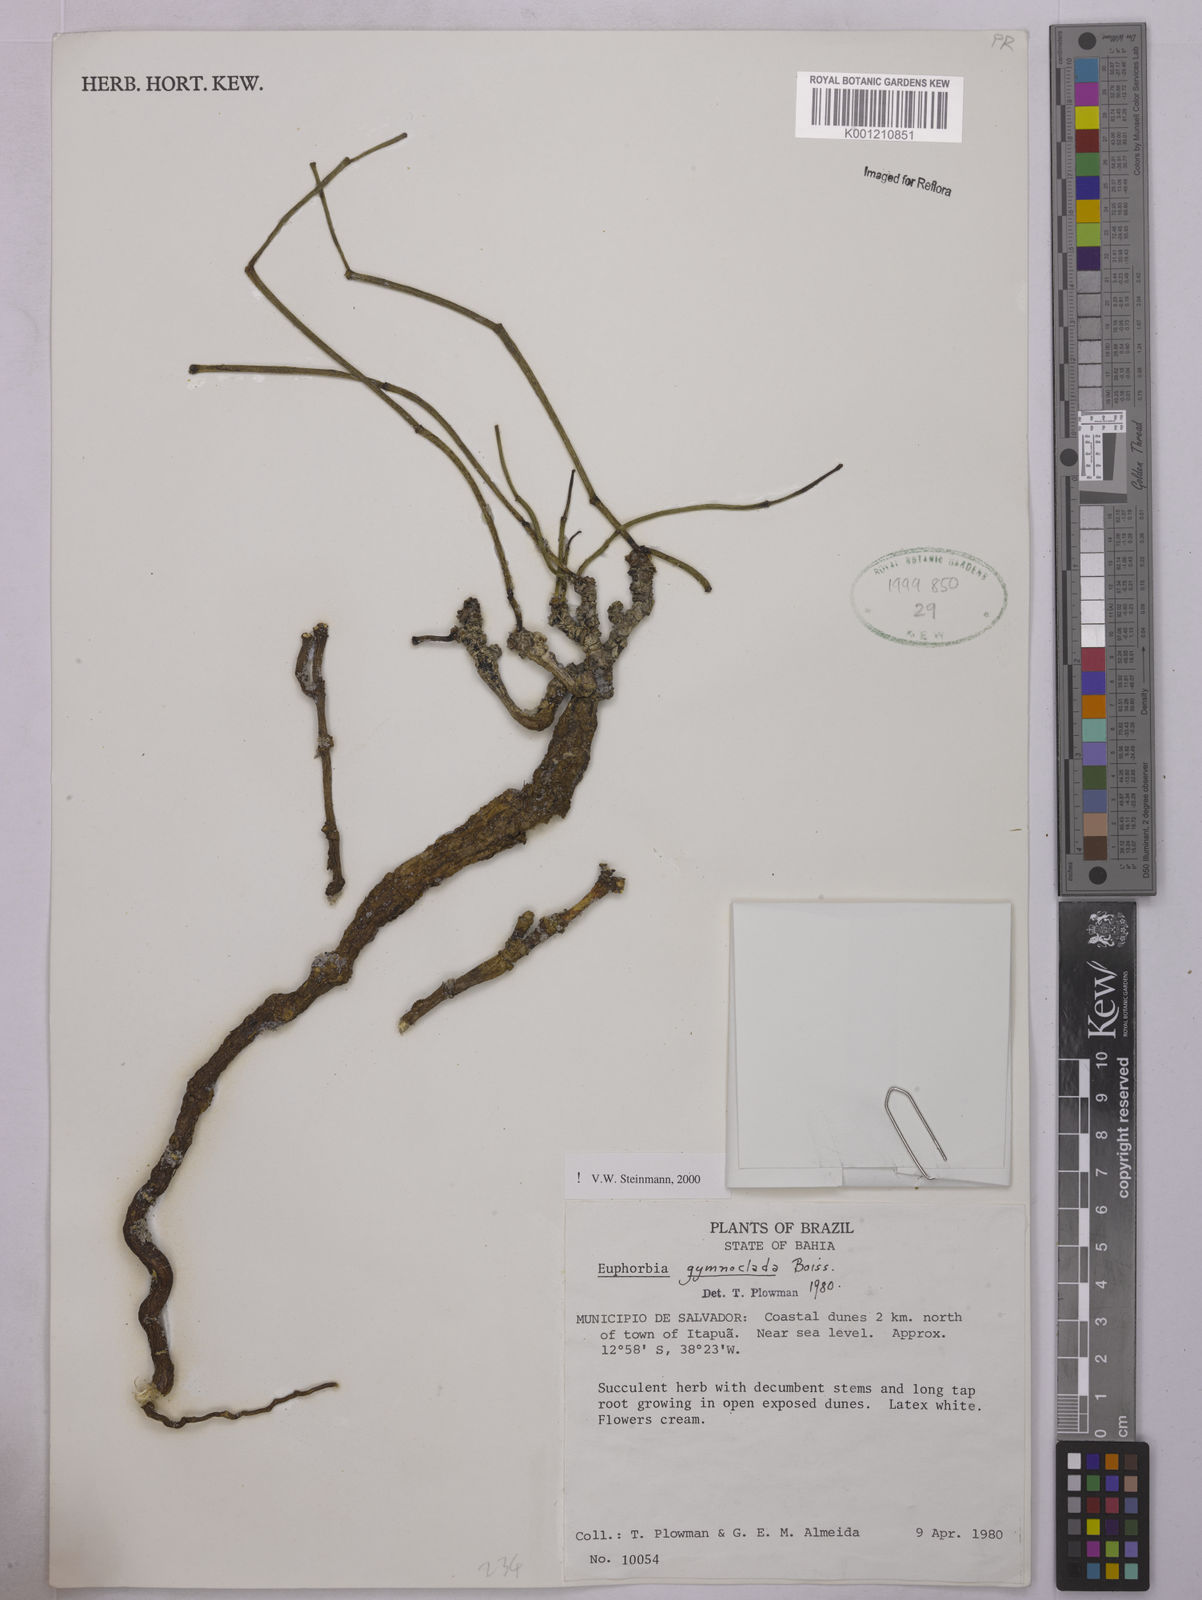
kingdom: Plantae
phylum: Tracheophyta
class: Magnoliopsida
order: Malpighiales
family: Euphorbiaceae
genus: Euphorbia
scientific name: Euphorbia gymnoclada
